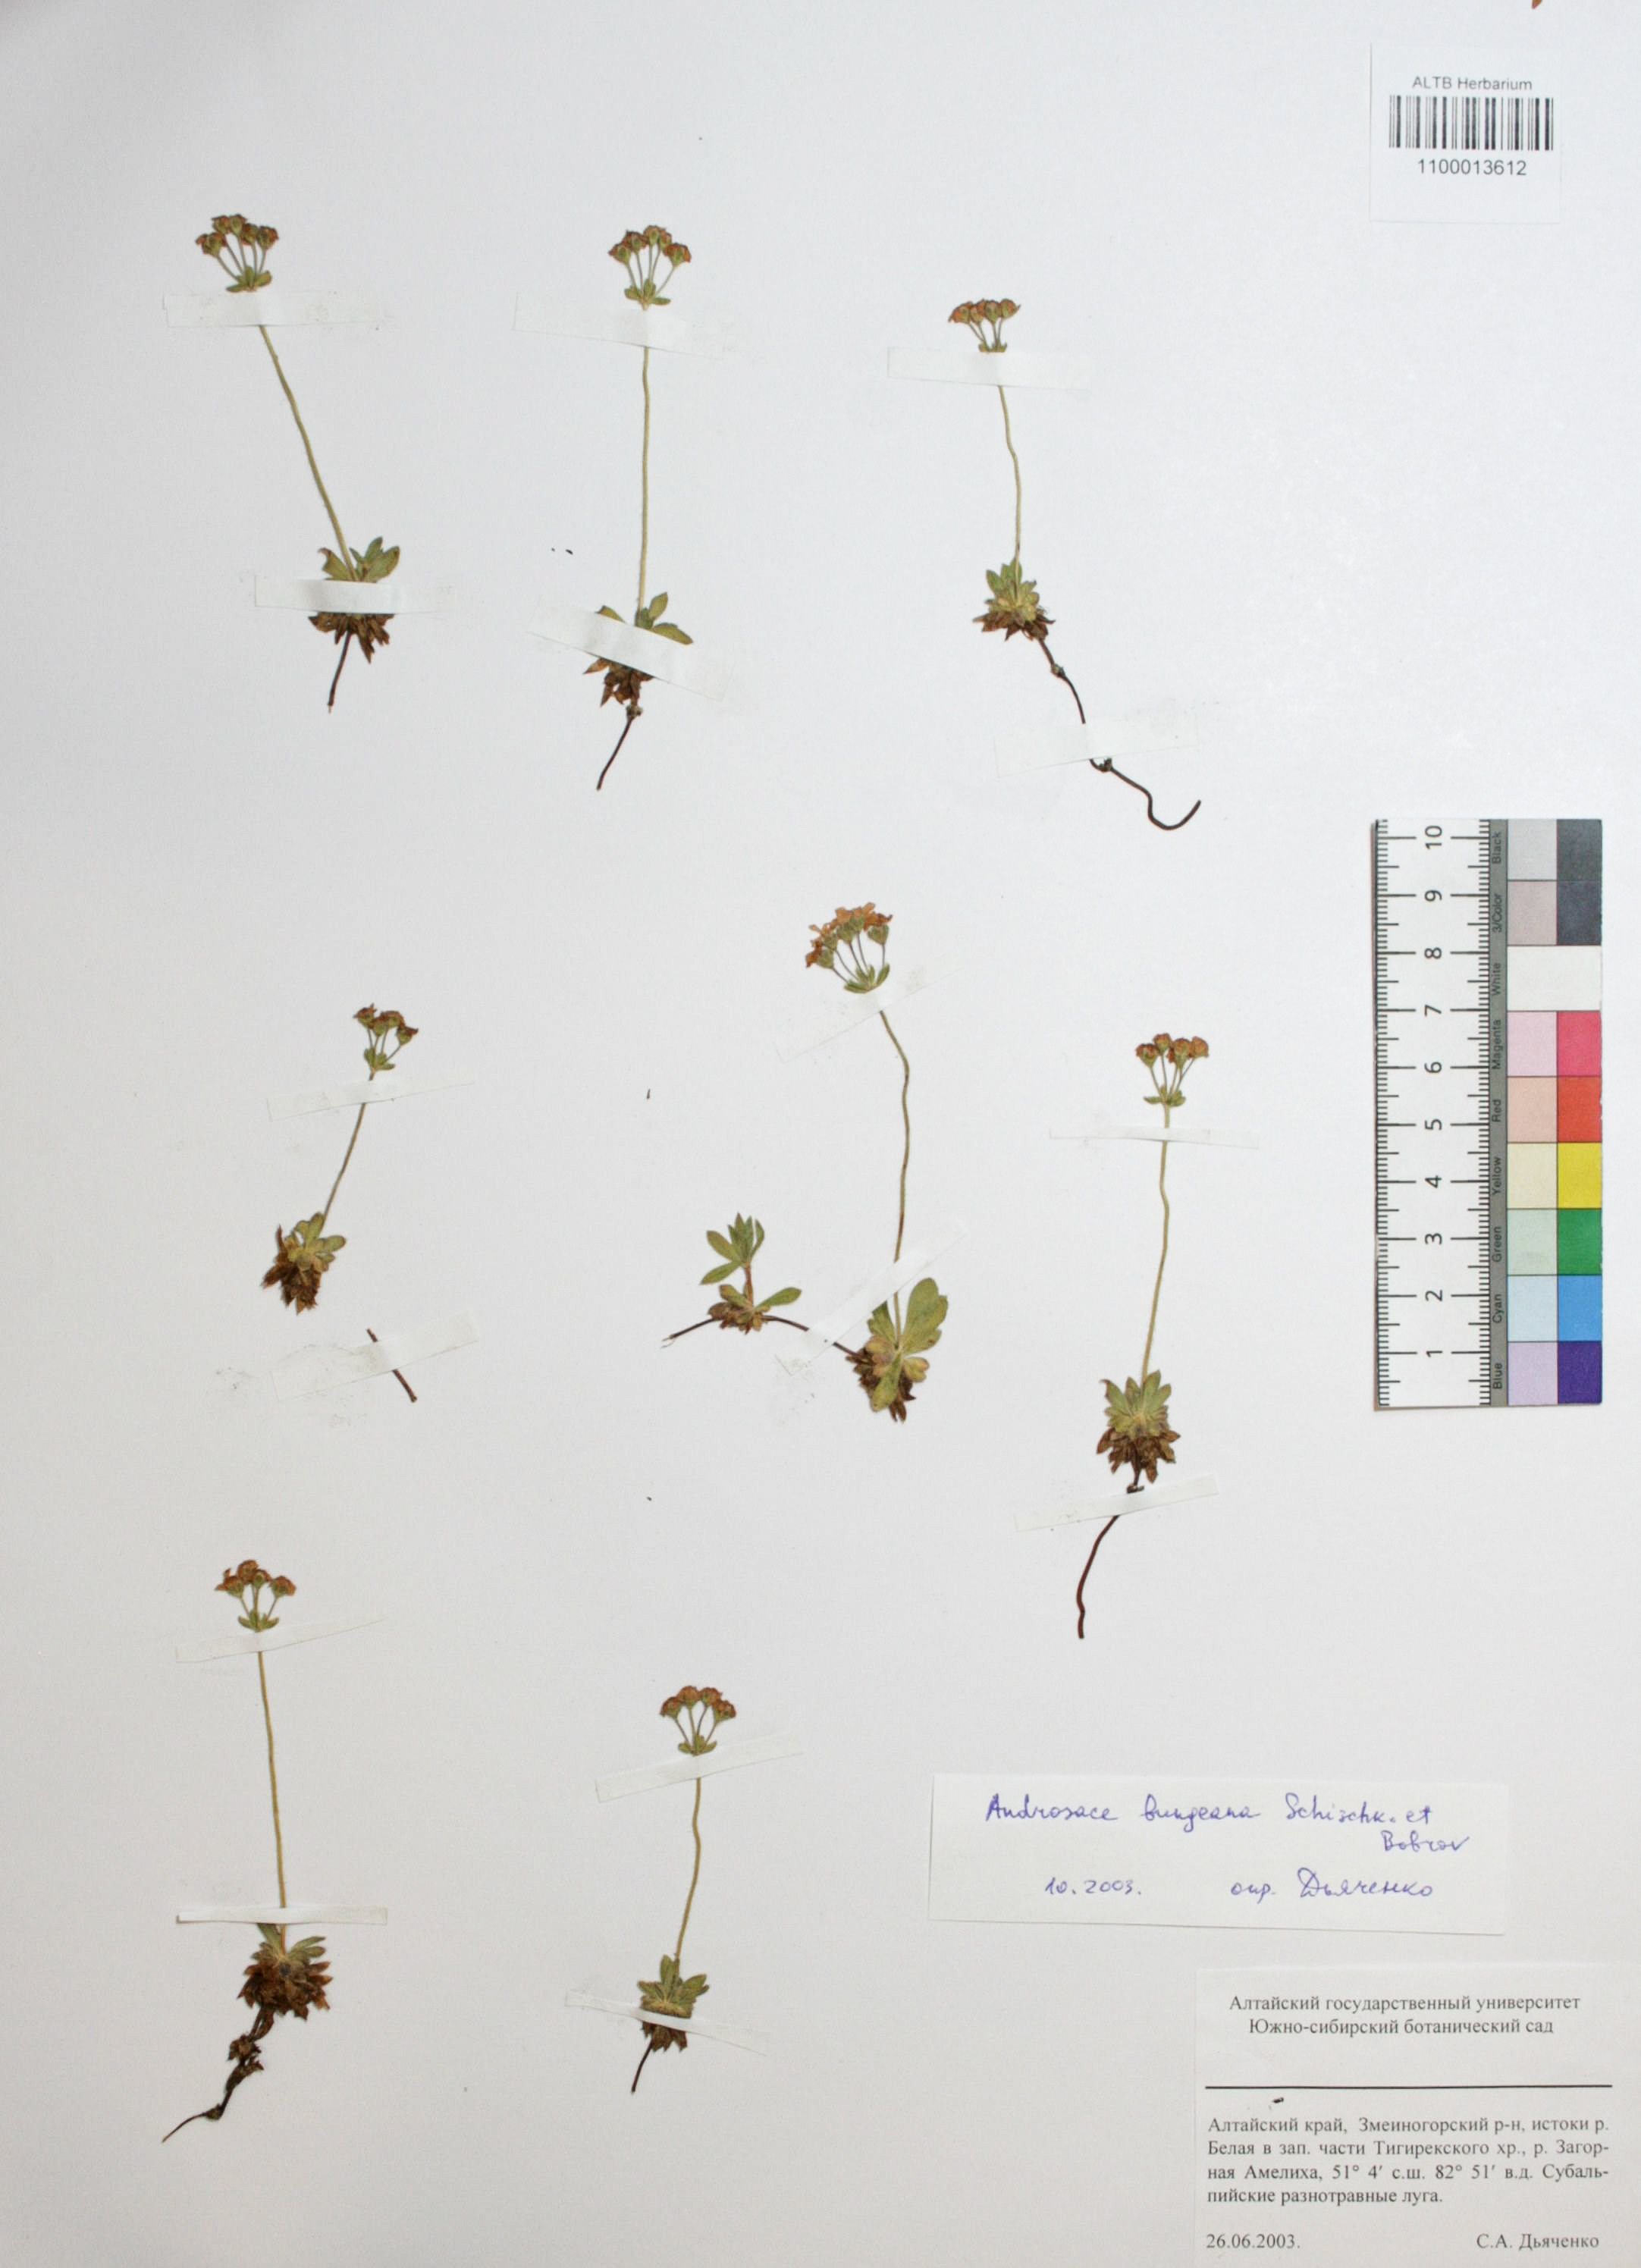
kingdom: Plantae
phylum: Tracheophyta
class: Magnoliopsida
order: Ericales
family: Primulaceae
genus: Androsace
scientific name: Androsace bungeana
